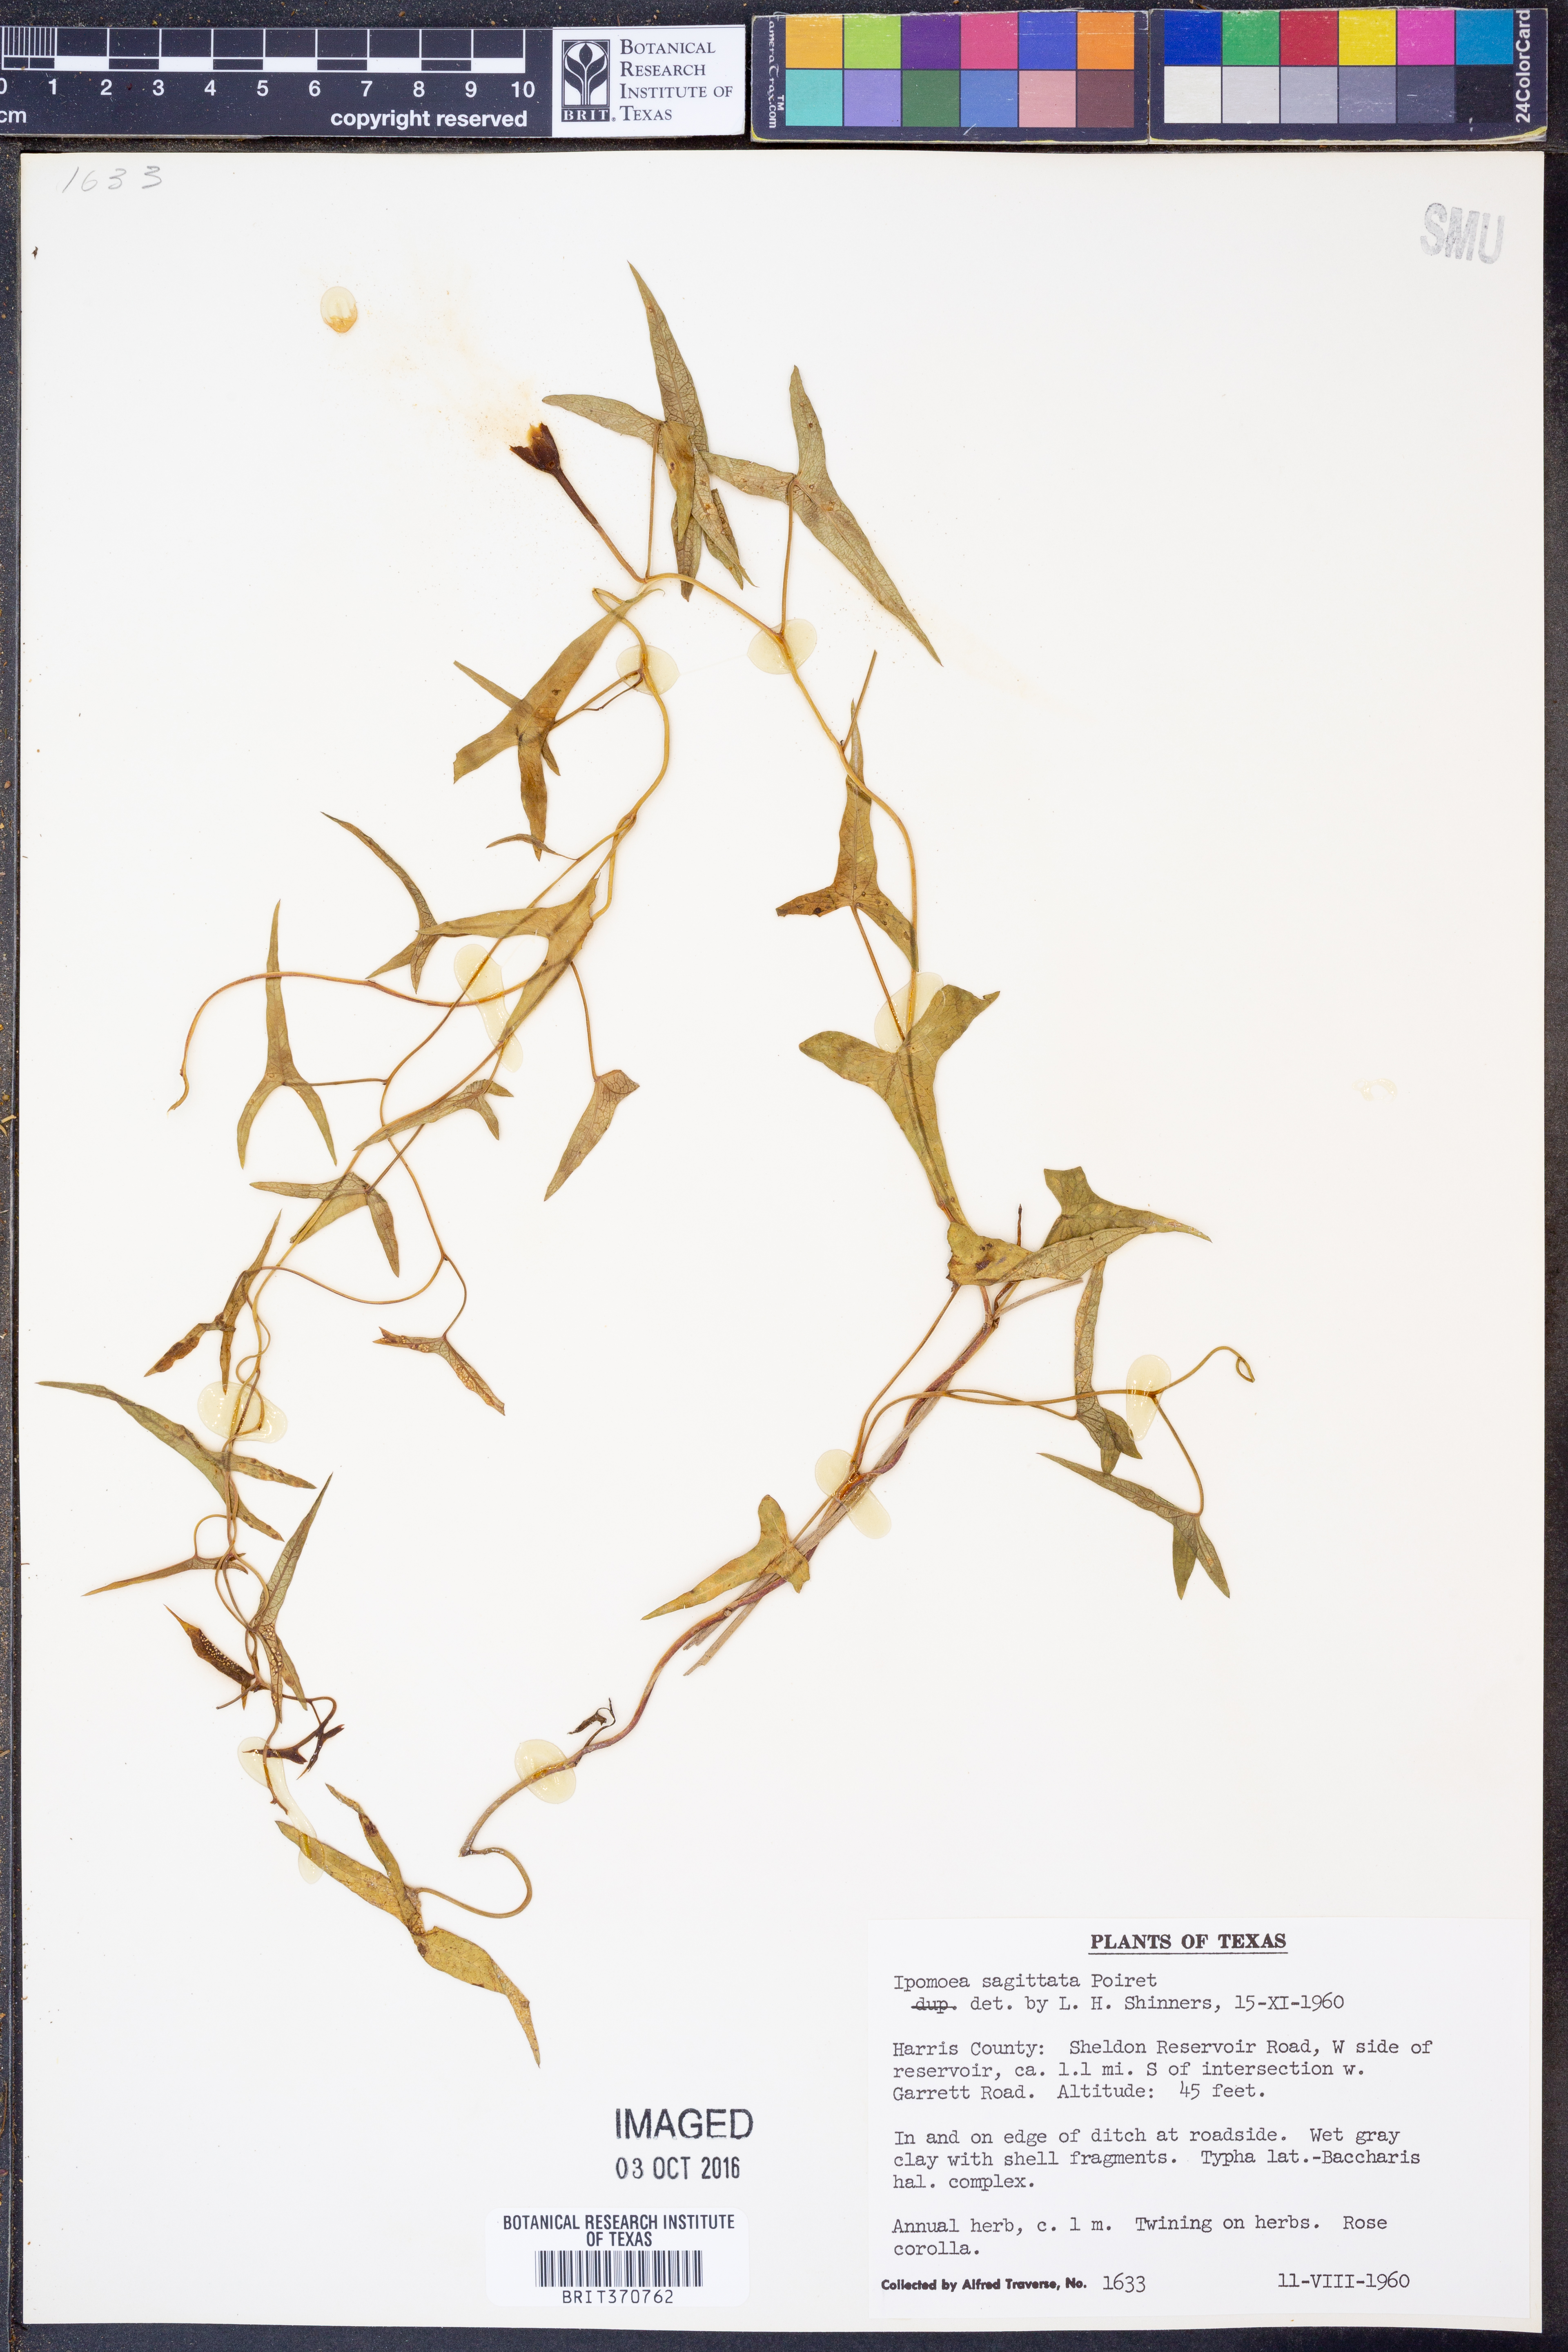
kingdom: Plantae
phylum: Tracheophyta
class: Magnoliopsida
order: Solanales
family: Convolvulaceae
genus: Ipomoea
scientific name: Ipomoea sinensis
